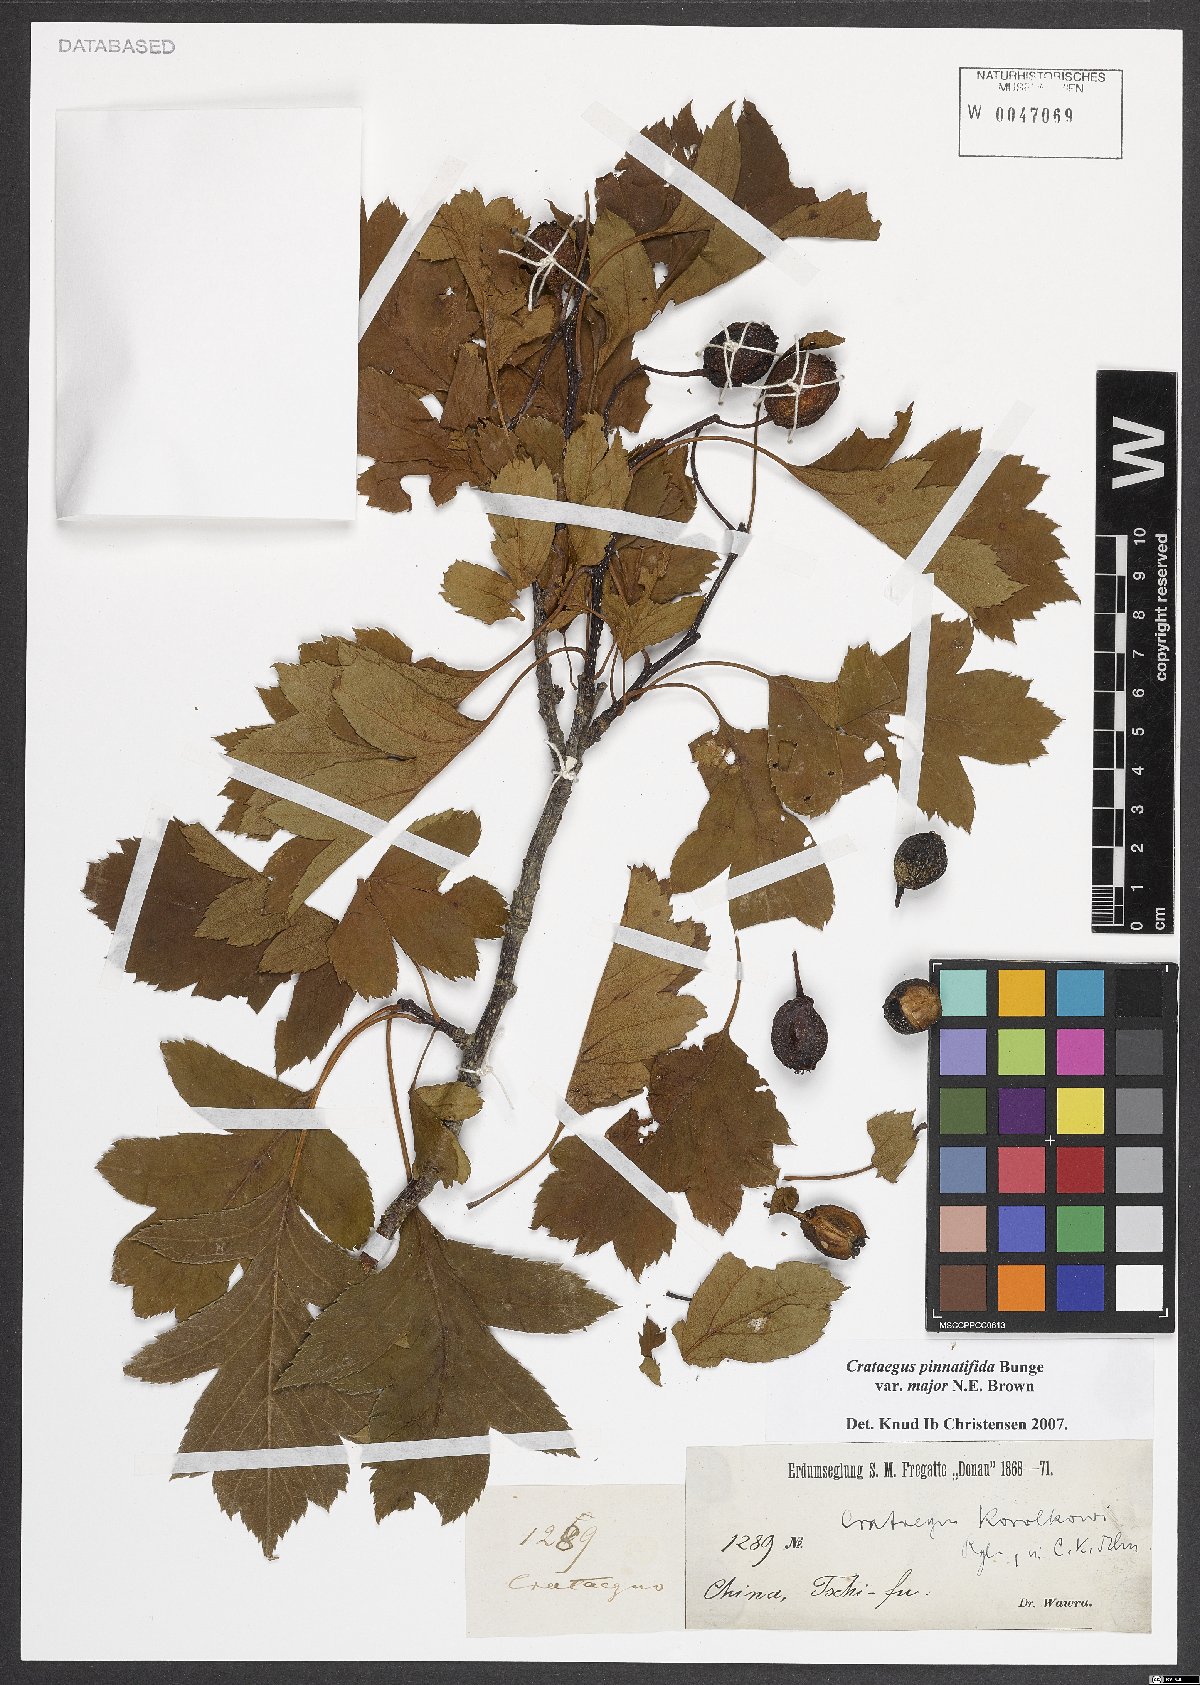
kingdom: Plantae
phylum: Tracheophyta
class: Magnoliopsida
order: Rosales
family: Rosaceae
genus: Crataegus
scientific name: Crataegus pinnatifida
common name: Chinese haw
